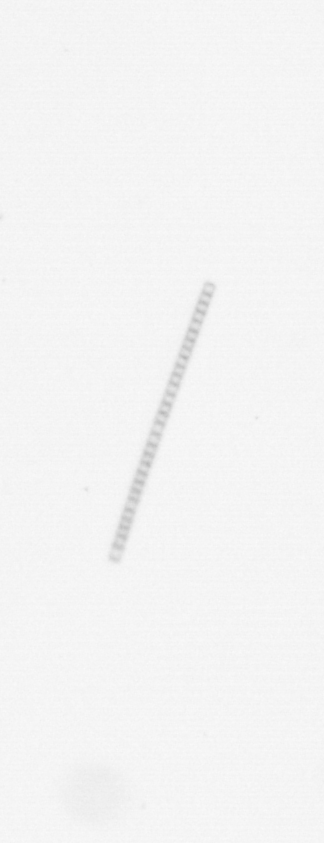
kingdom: Chromista
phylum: Ochrophyta
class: Bacillariophyceae
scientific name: Bacillariophyceae
